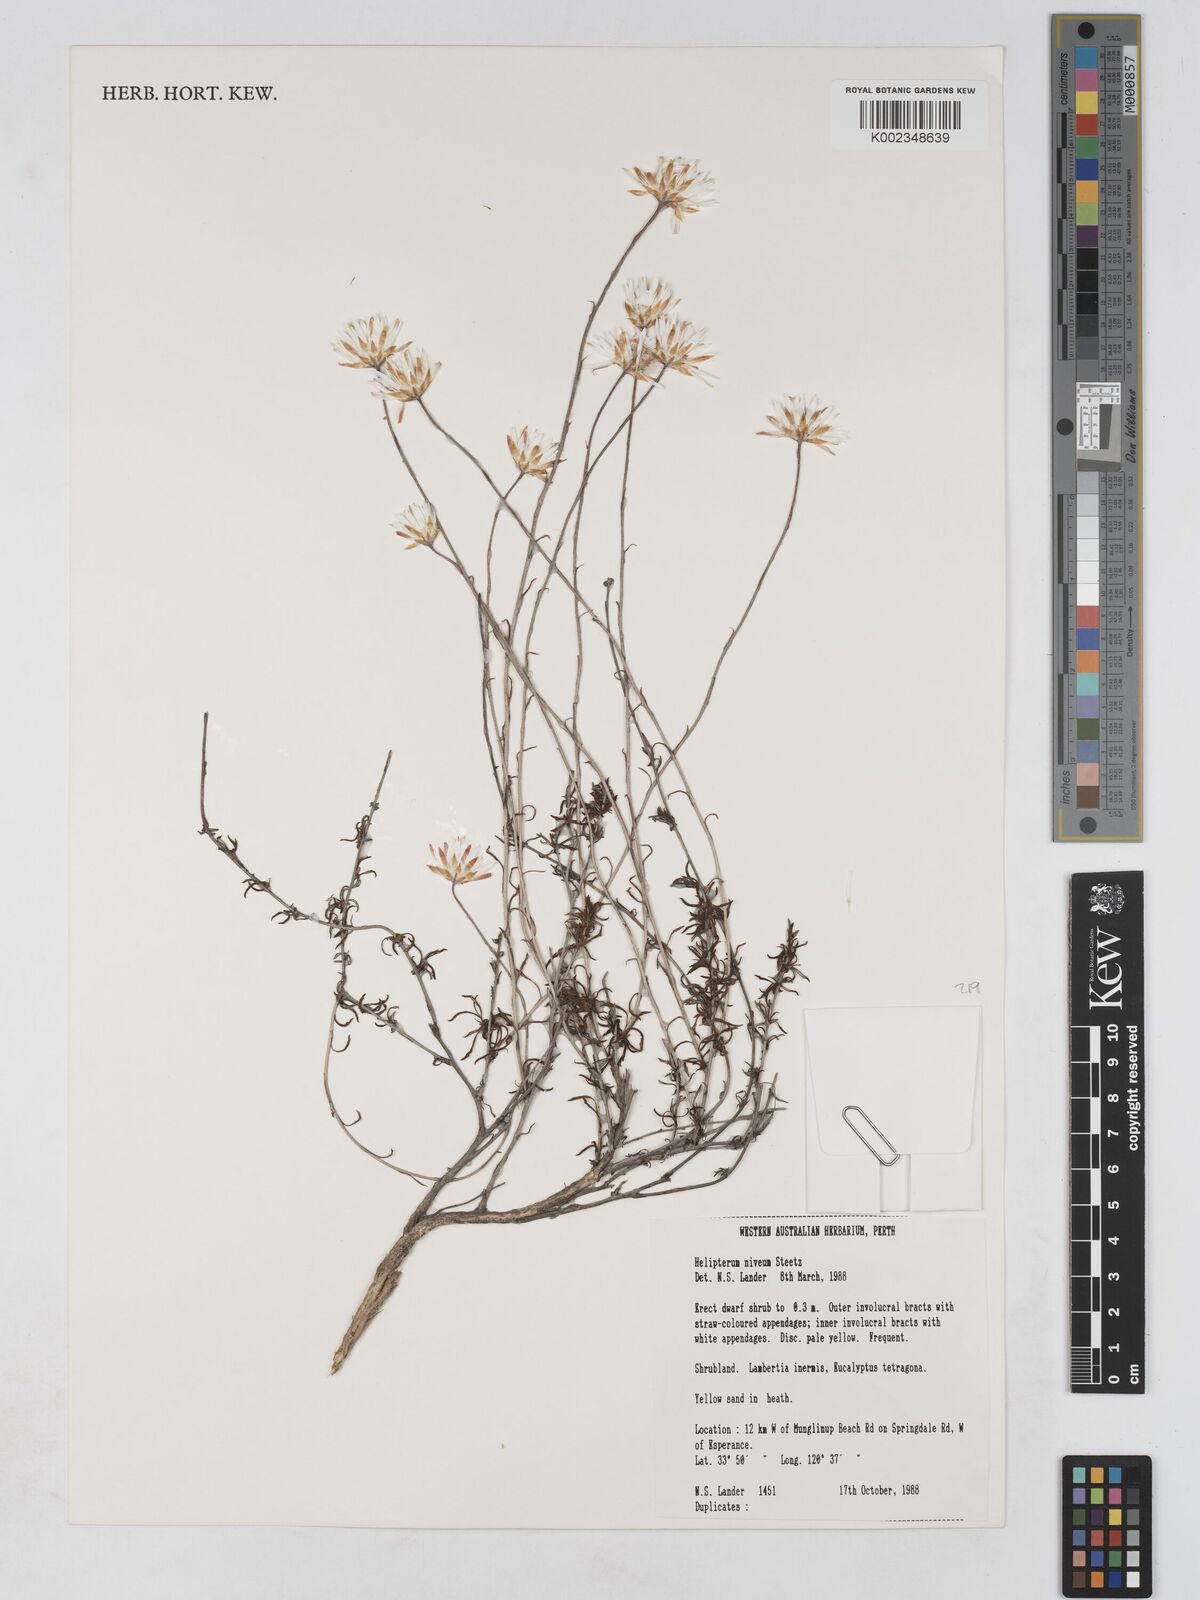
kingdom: Plantae
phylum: Tracheophyta
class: Magnoliopsida
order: Asterales
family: Asteraceae
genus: Argentipallium
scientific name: Argentipallium niveum
